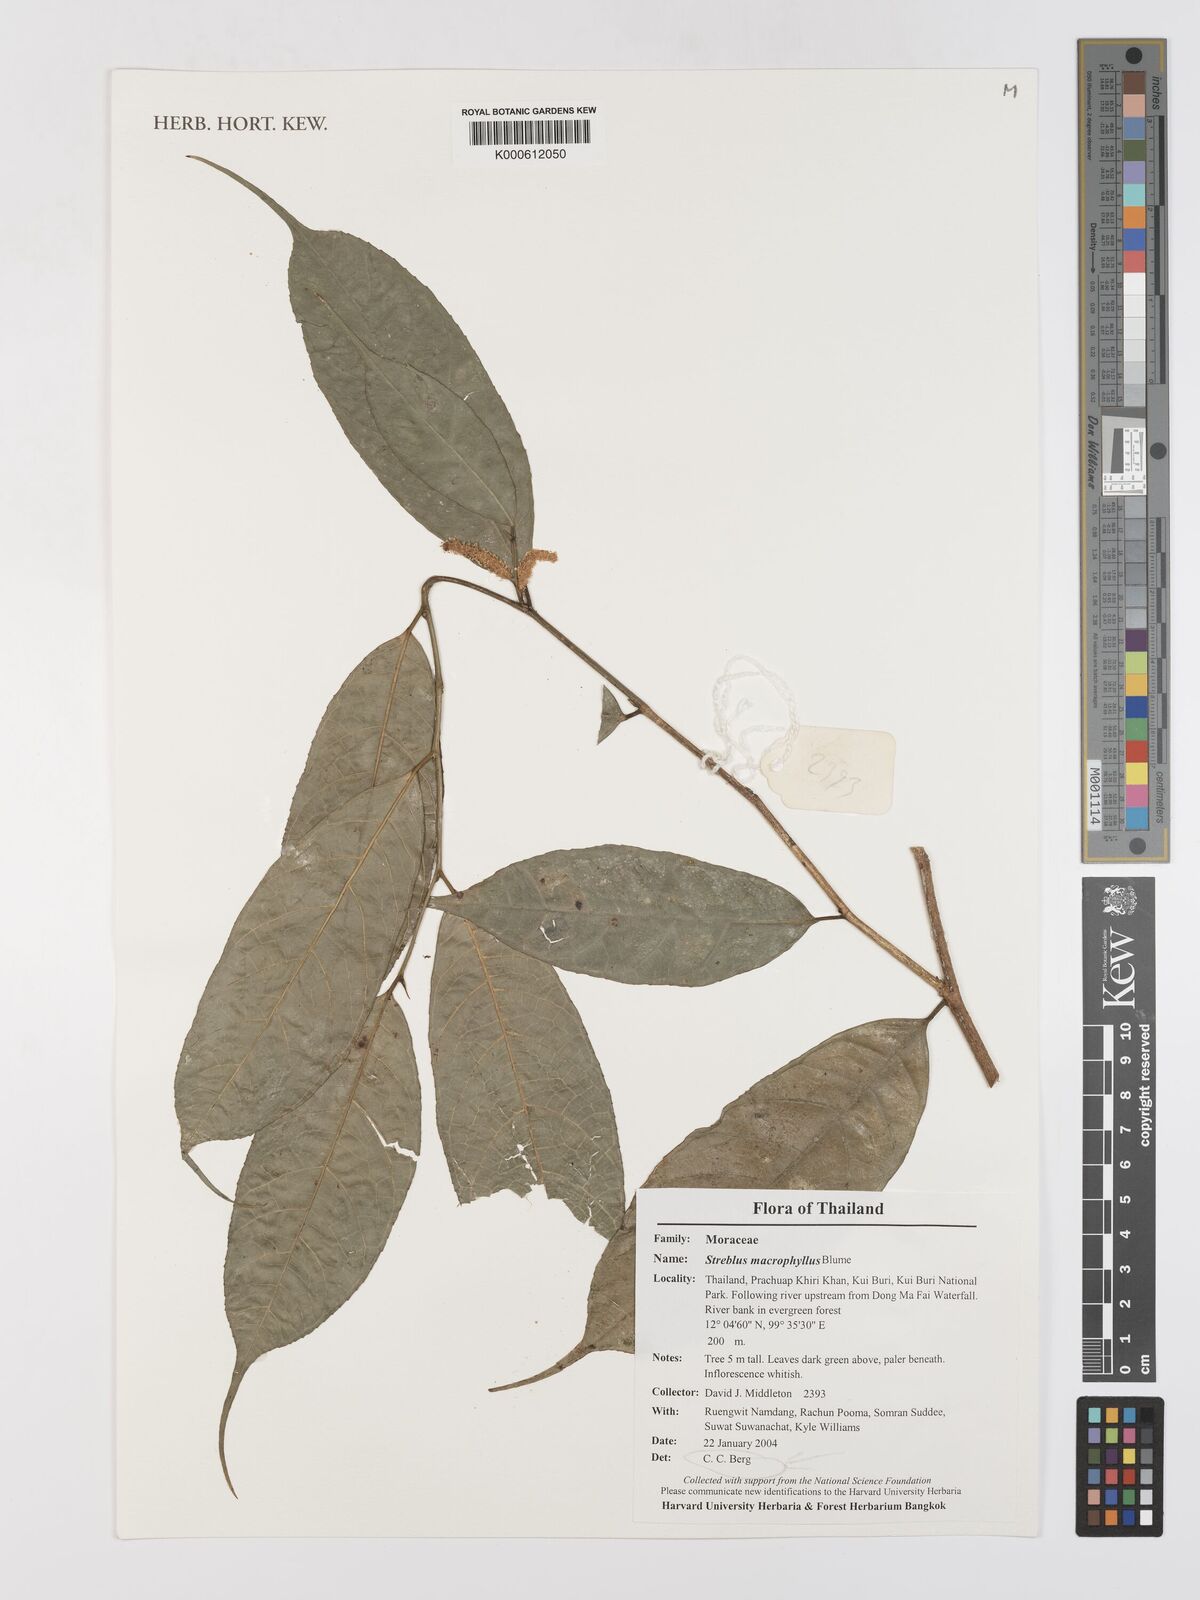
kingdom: Plantae
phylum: Tracheophyta
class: Magnoliopsida
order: Rosales
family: Moraceae
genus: Taxotrophis
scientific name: Taxotrophis macrophylla
